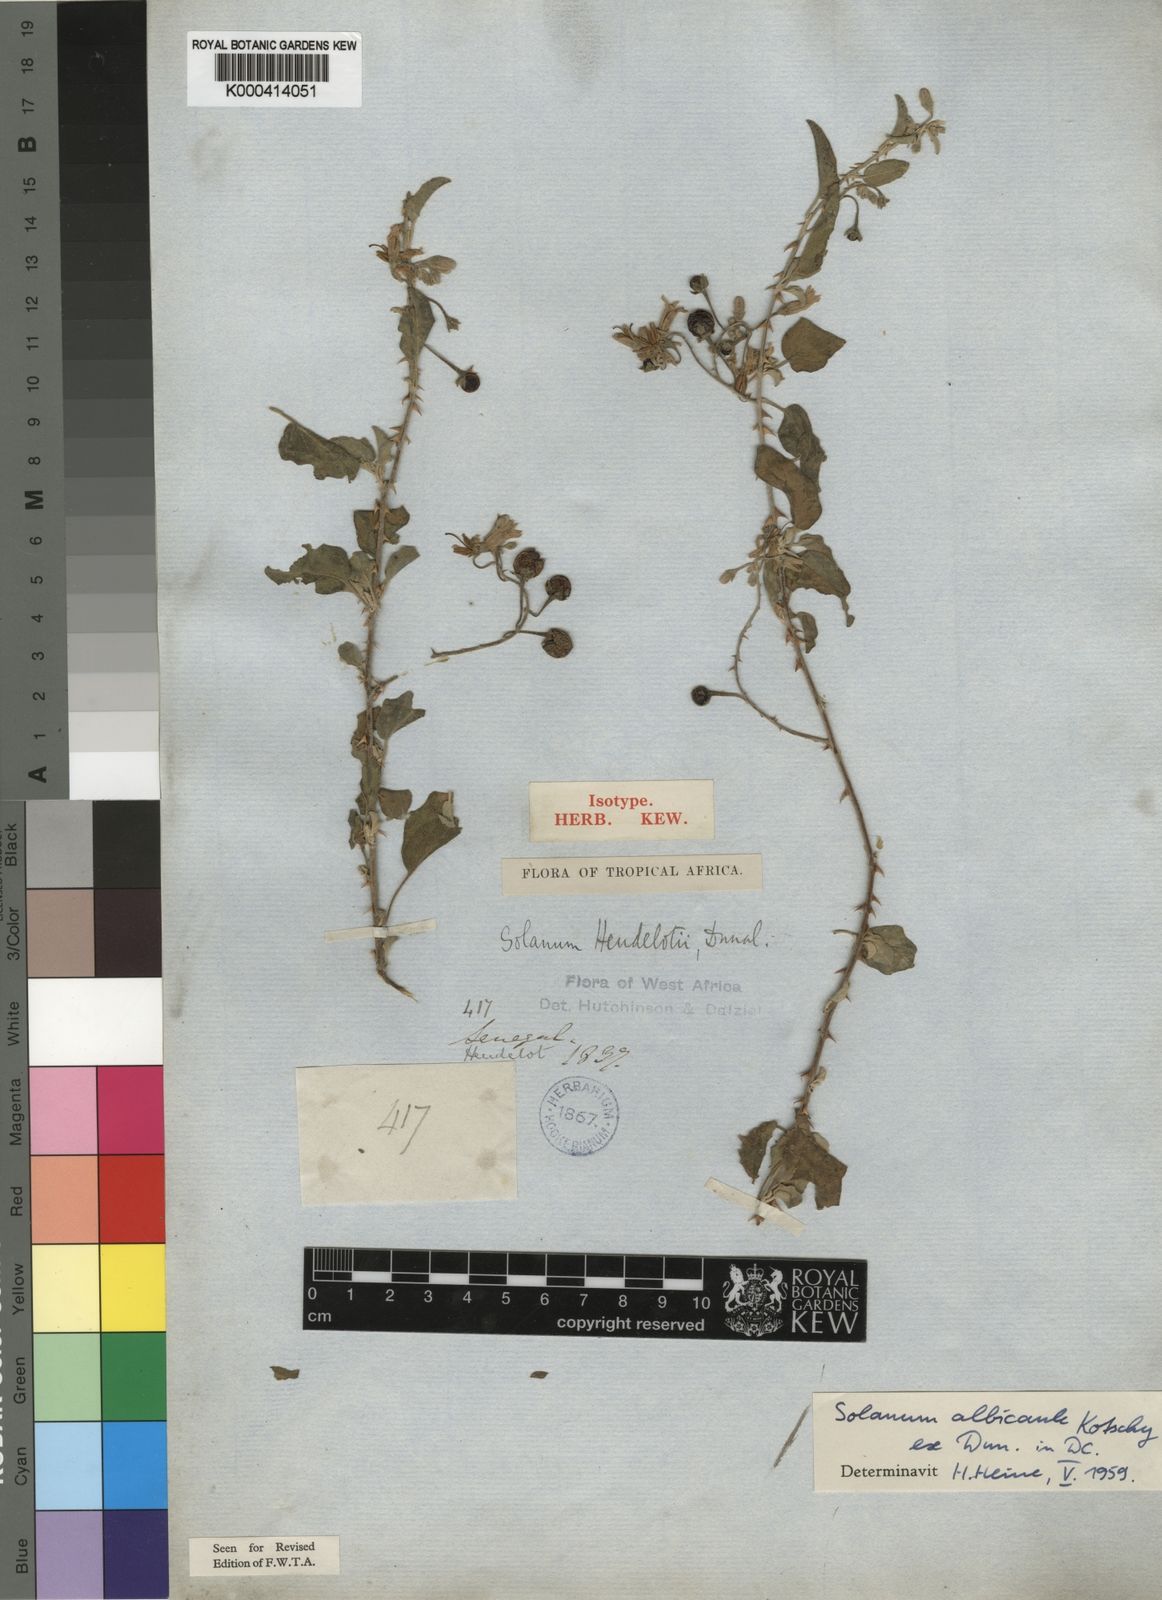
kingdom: Plantae
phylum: Tracheophyta
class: Magnoliopsida
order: Solanales
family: Solanaceae
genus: Solanum
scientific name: Solanum forsskaolii
